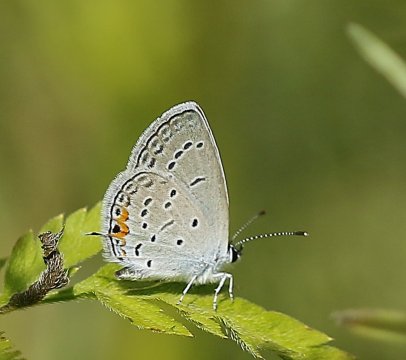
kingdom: Animalia
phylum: Arthropoda
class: Insecta
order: Lepidoptera
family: Lycaenidae
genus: Elkalyce
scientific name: Elkalyce comyntas
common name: Eastern Tailed-Blue
